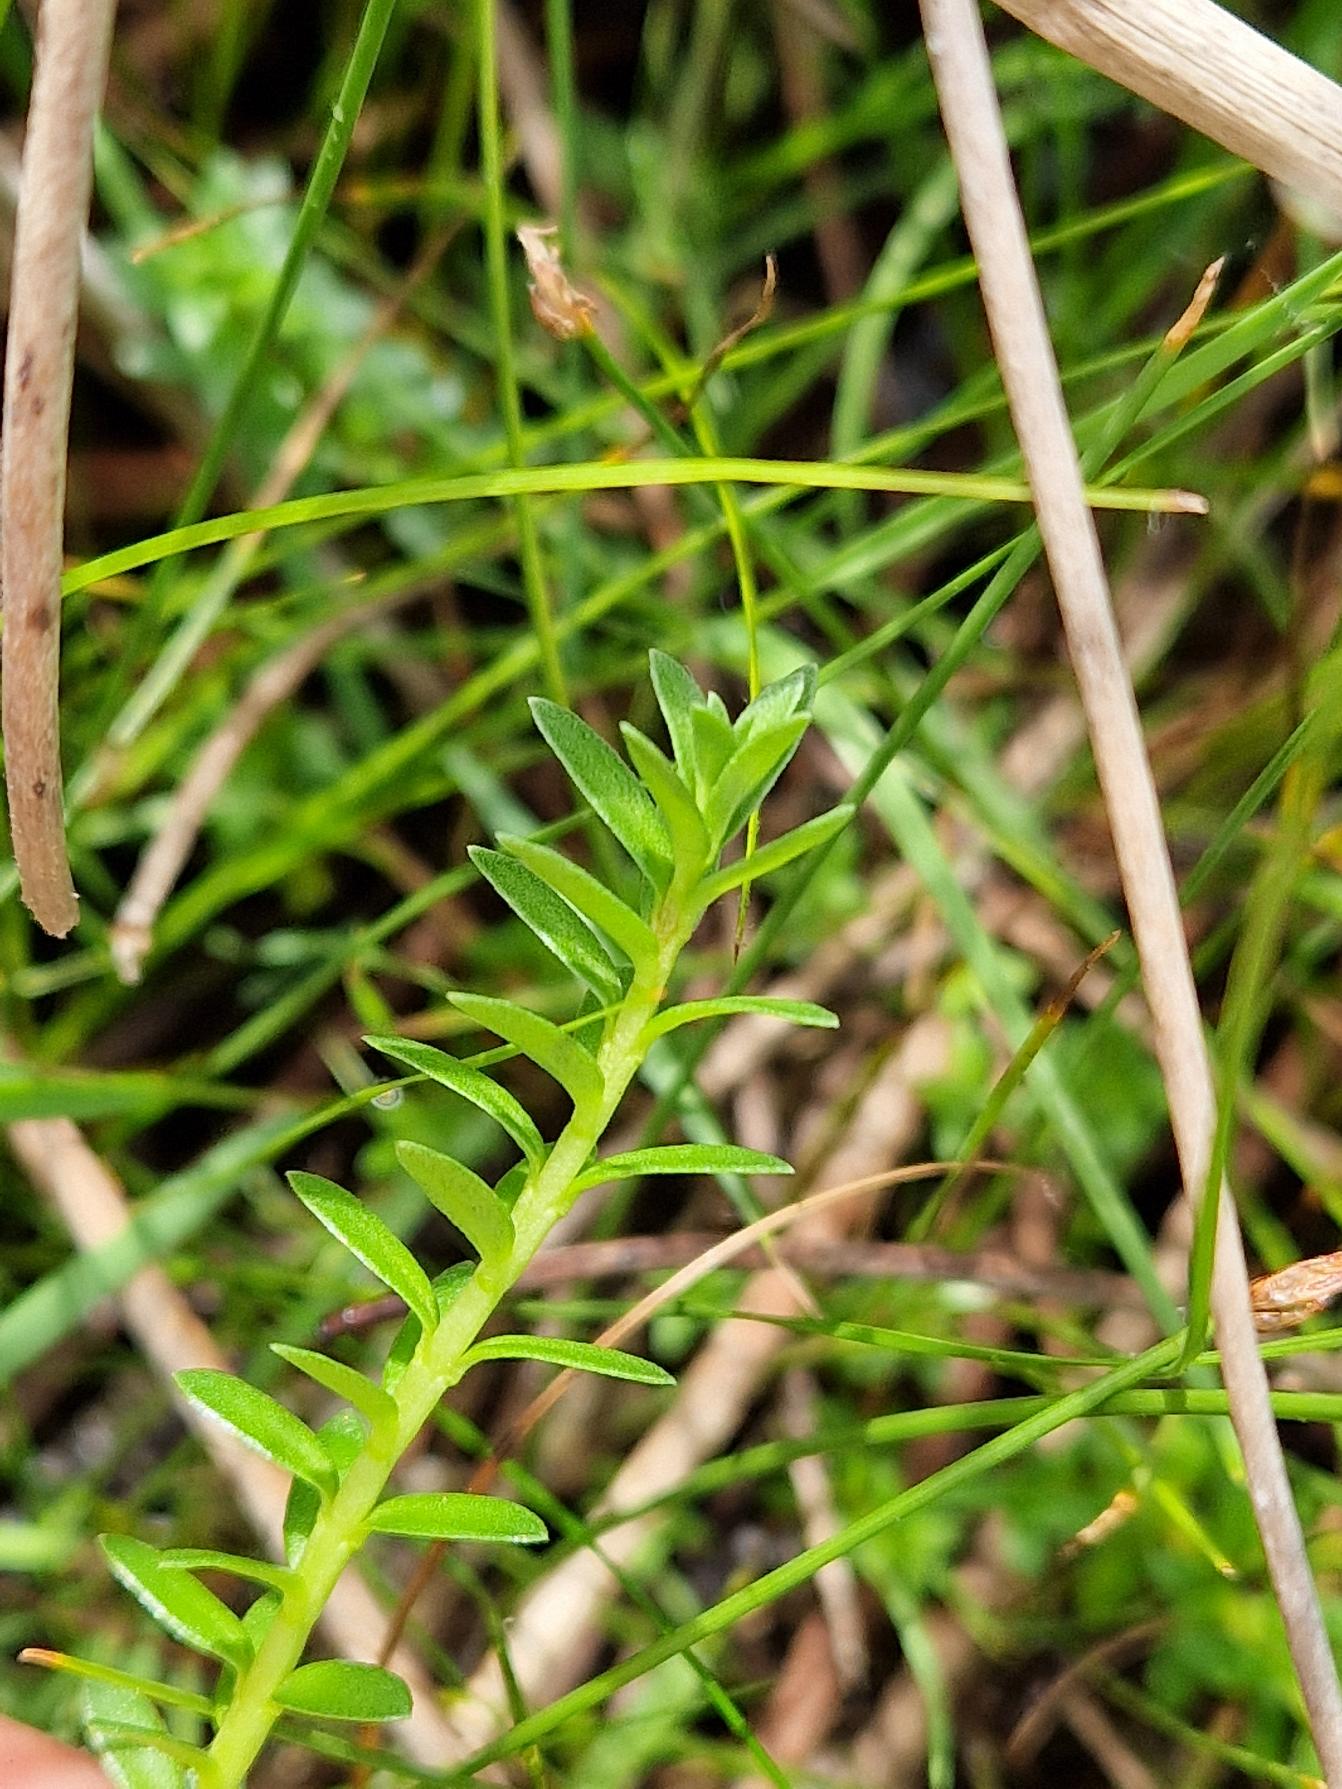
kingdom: Plantae
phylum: Tracheophyta
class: Magnoliopsida
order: Ericales
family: Primulaceae
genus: Lysimachia
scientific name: Lysimachia maritima
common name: Sandkryb
